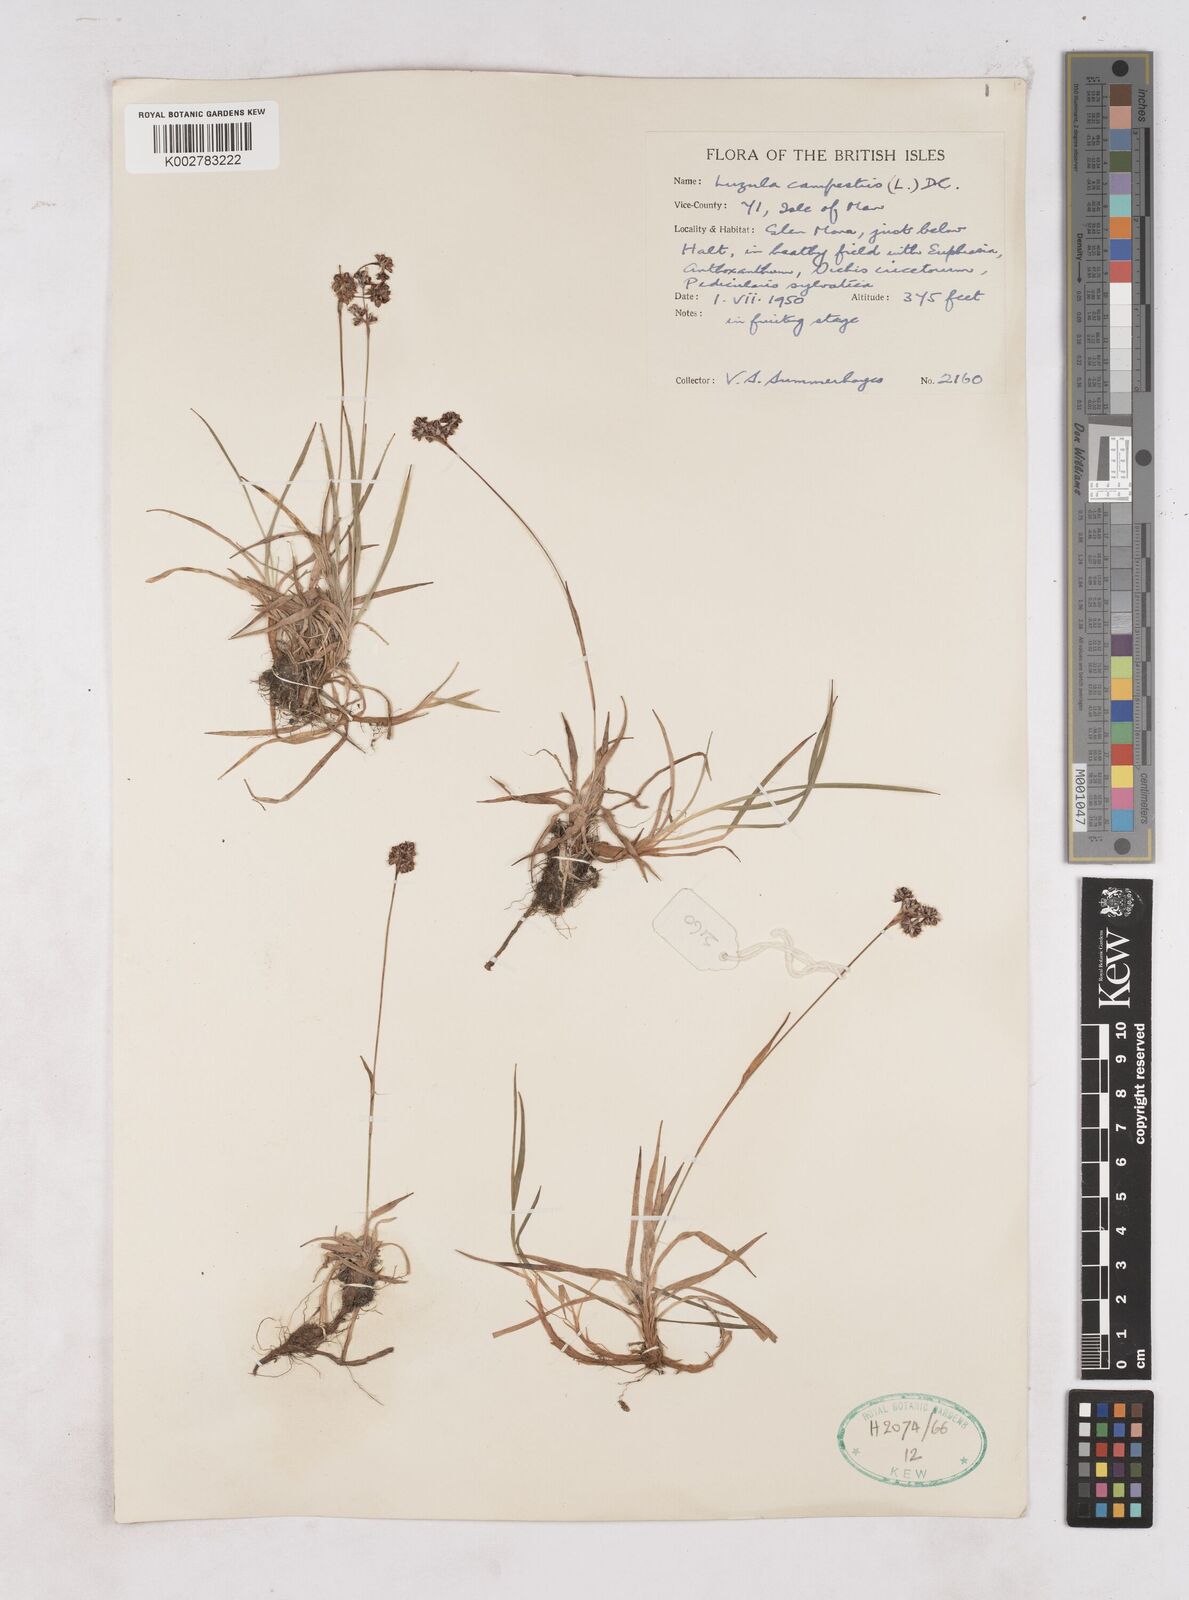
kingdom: Plantae
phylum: Tracheophyta
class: Liliopsida
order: Poales
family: Juncaceae
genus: Luzula
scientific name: Luzula multiflora
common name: Heath wood-rush
